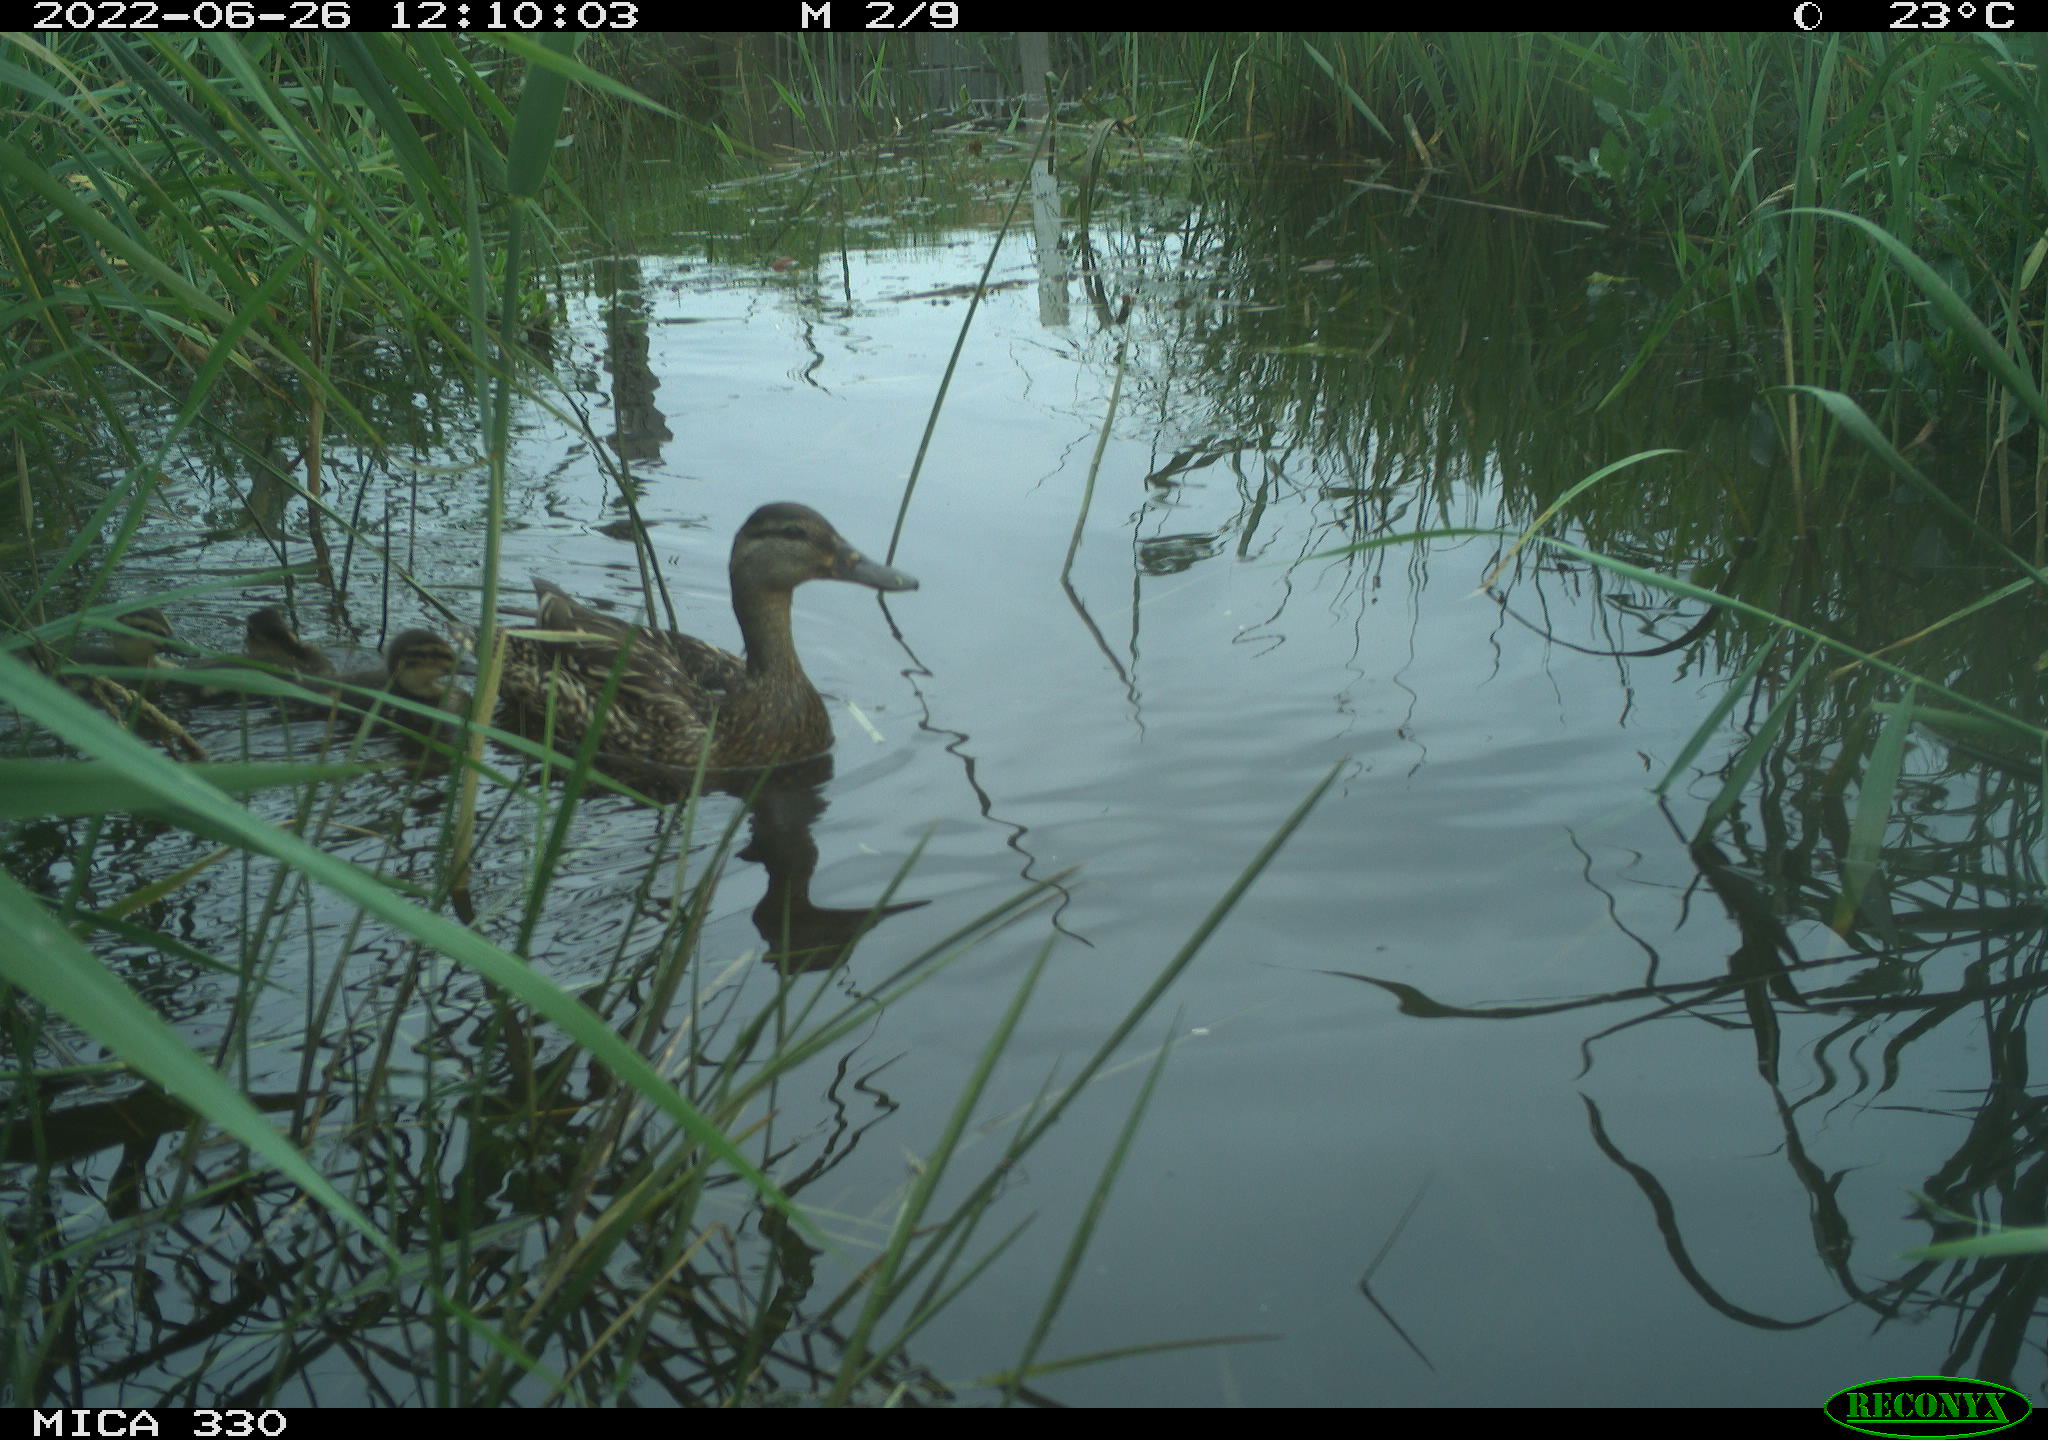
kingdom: Animalia
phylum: Chordata
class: Aves
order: Anseriformes
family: Anatidae
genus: Mareca
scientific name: Mareca strepera
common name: Gadwall
